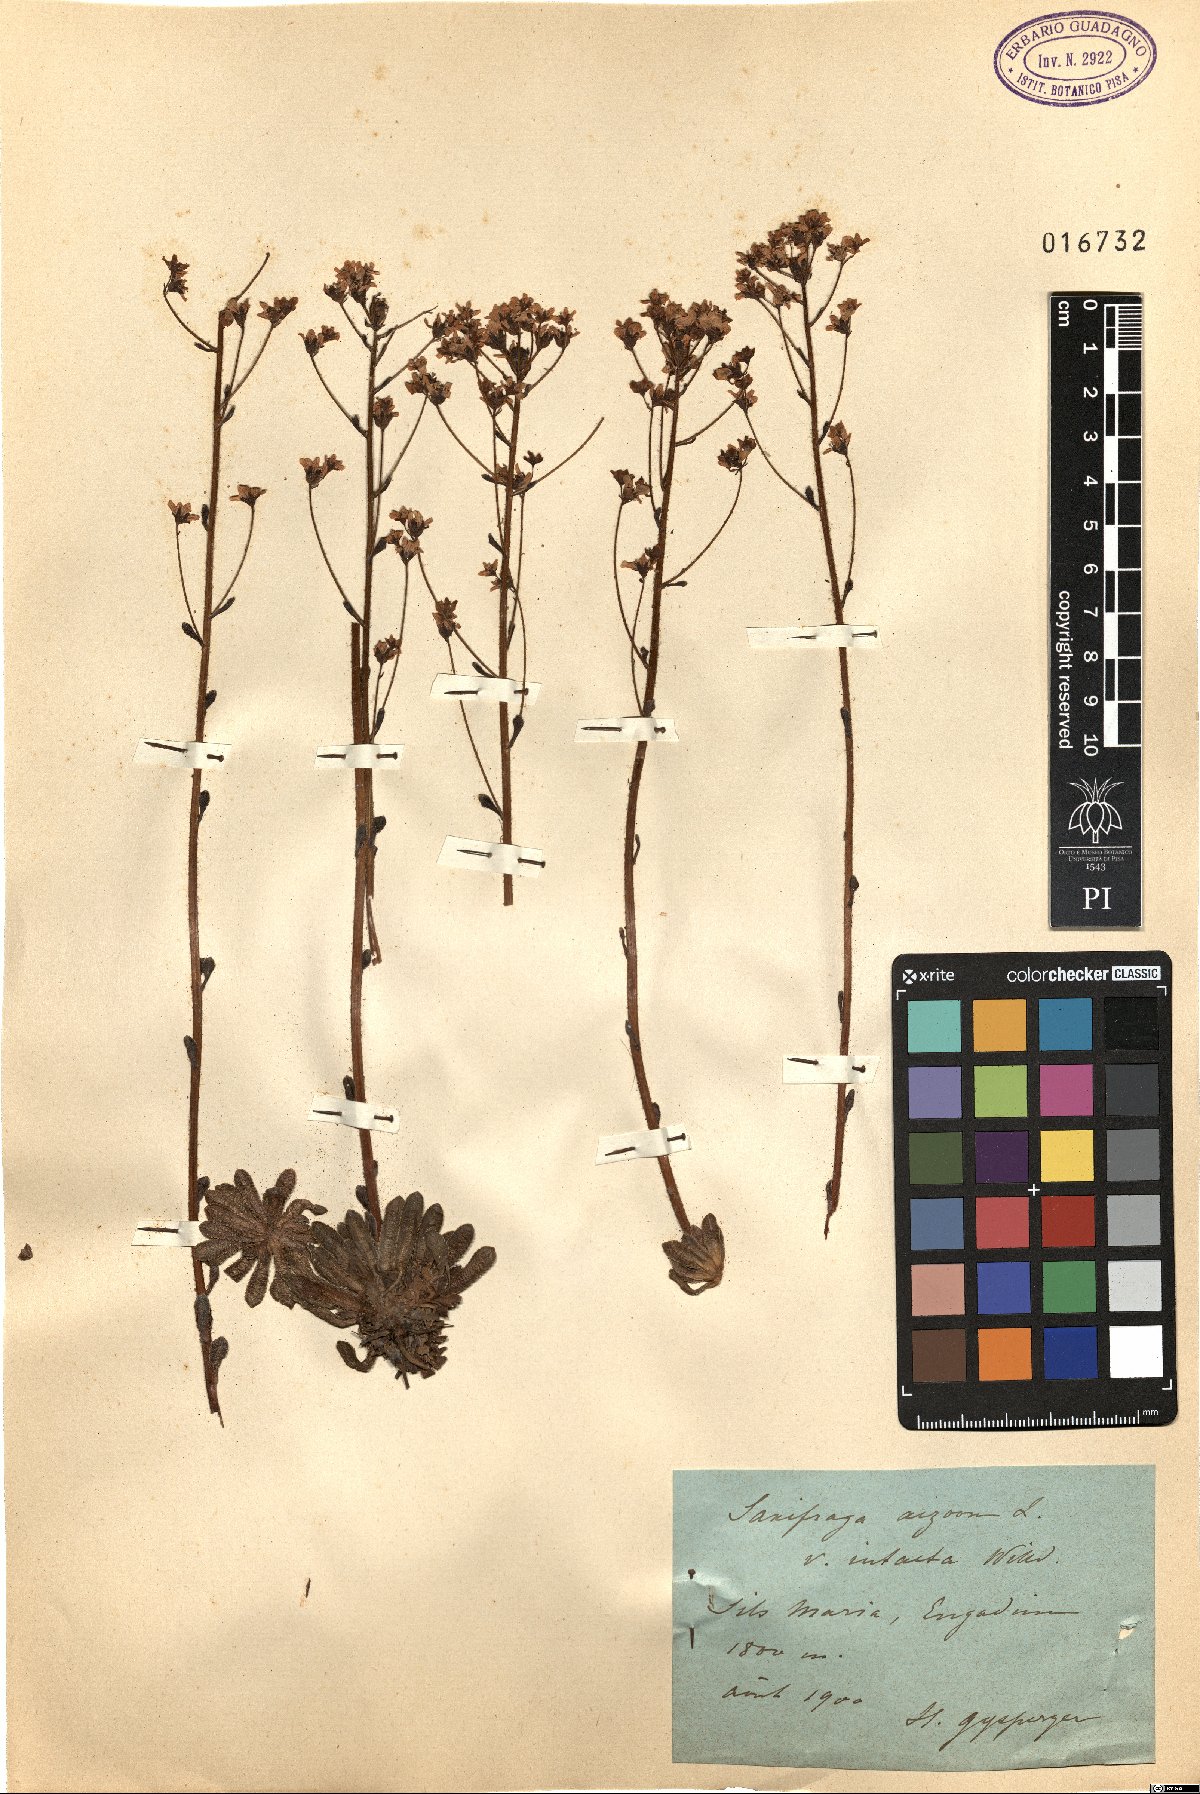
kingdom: Plantae
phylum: Tracheophyta
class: Magnoliopsida
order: Saxifragales
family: Saxifragaceae
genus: Saxifraga
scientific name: Saxifraga paniculata
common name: Livelong saxifrage
